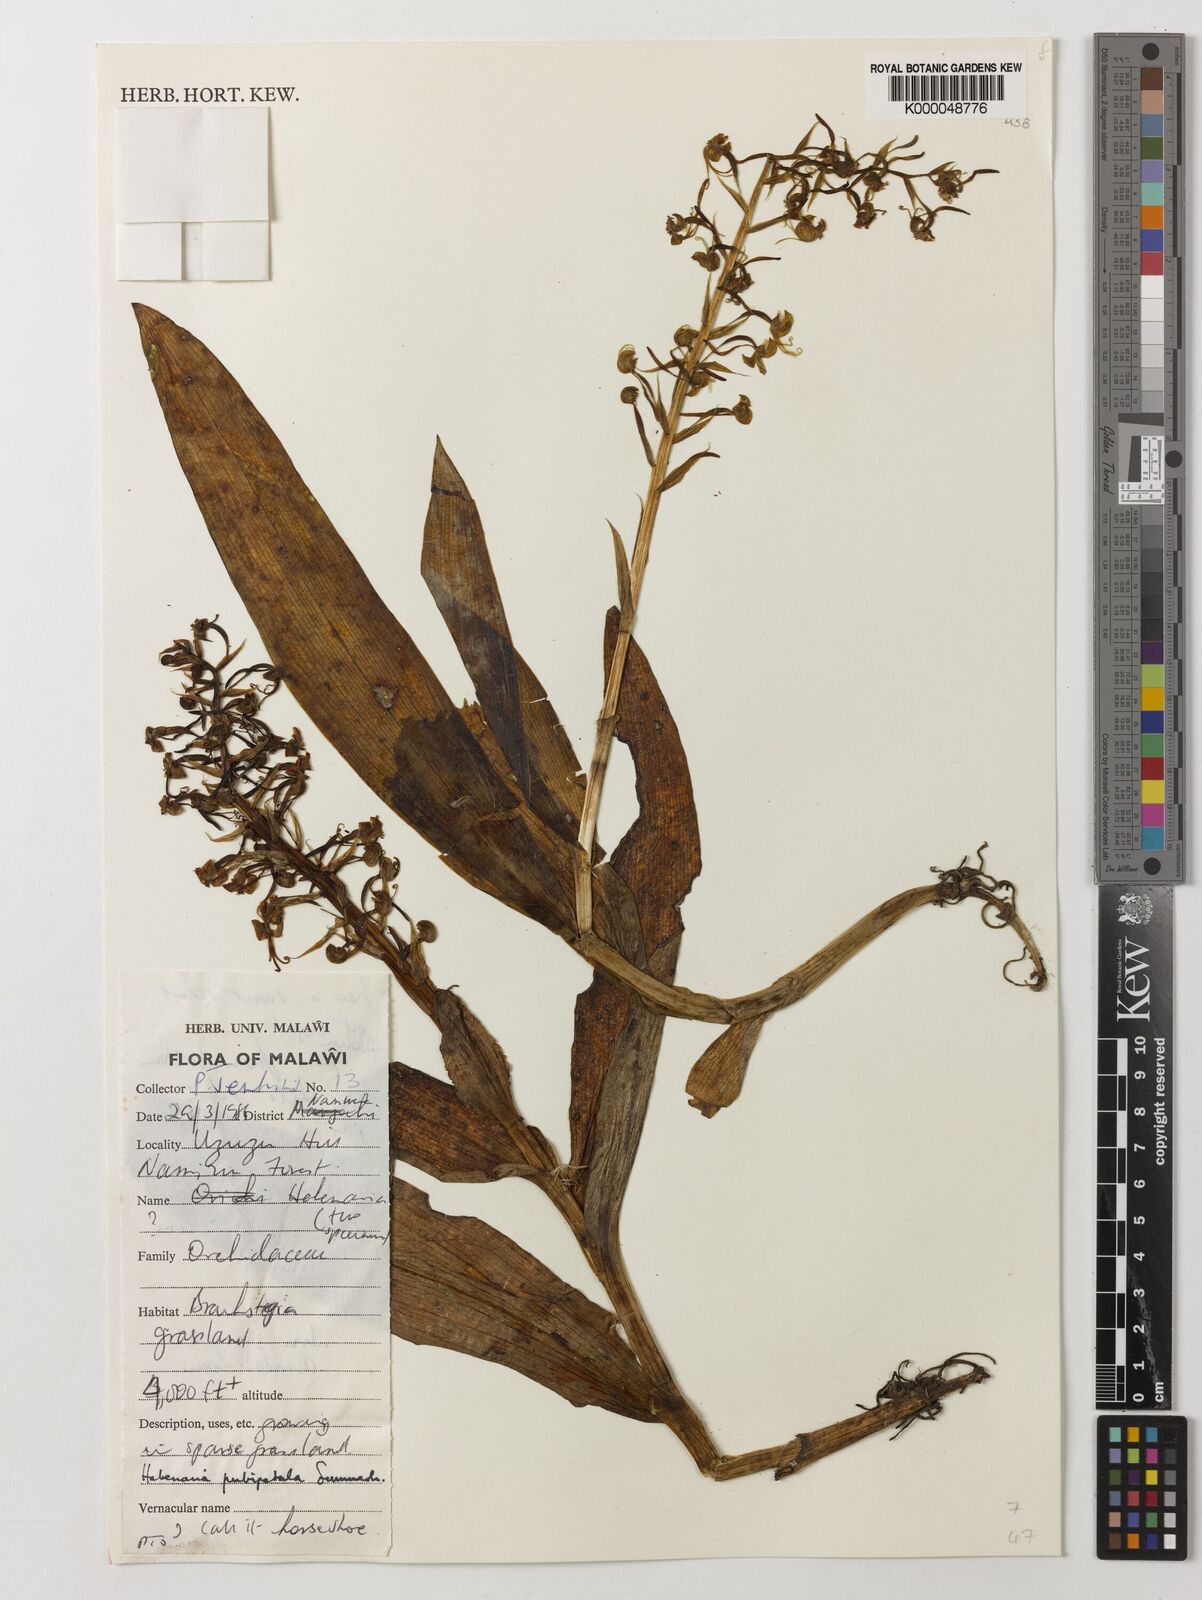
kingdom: Plantae
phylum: Tracheophyta
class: Liliopsida
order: Asparagales
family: Orchidaceae
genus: Habenaria
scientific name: Habenaria pubipetala
